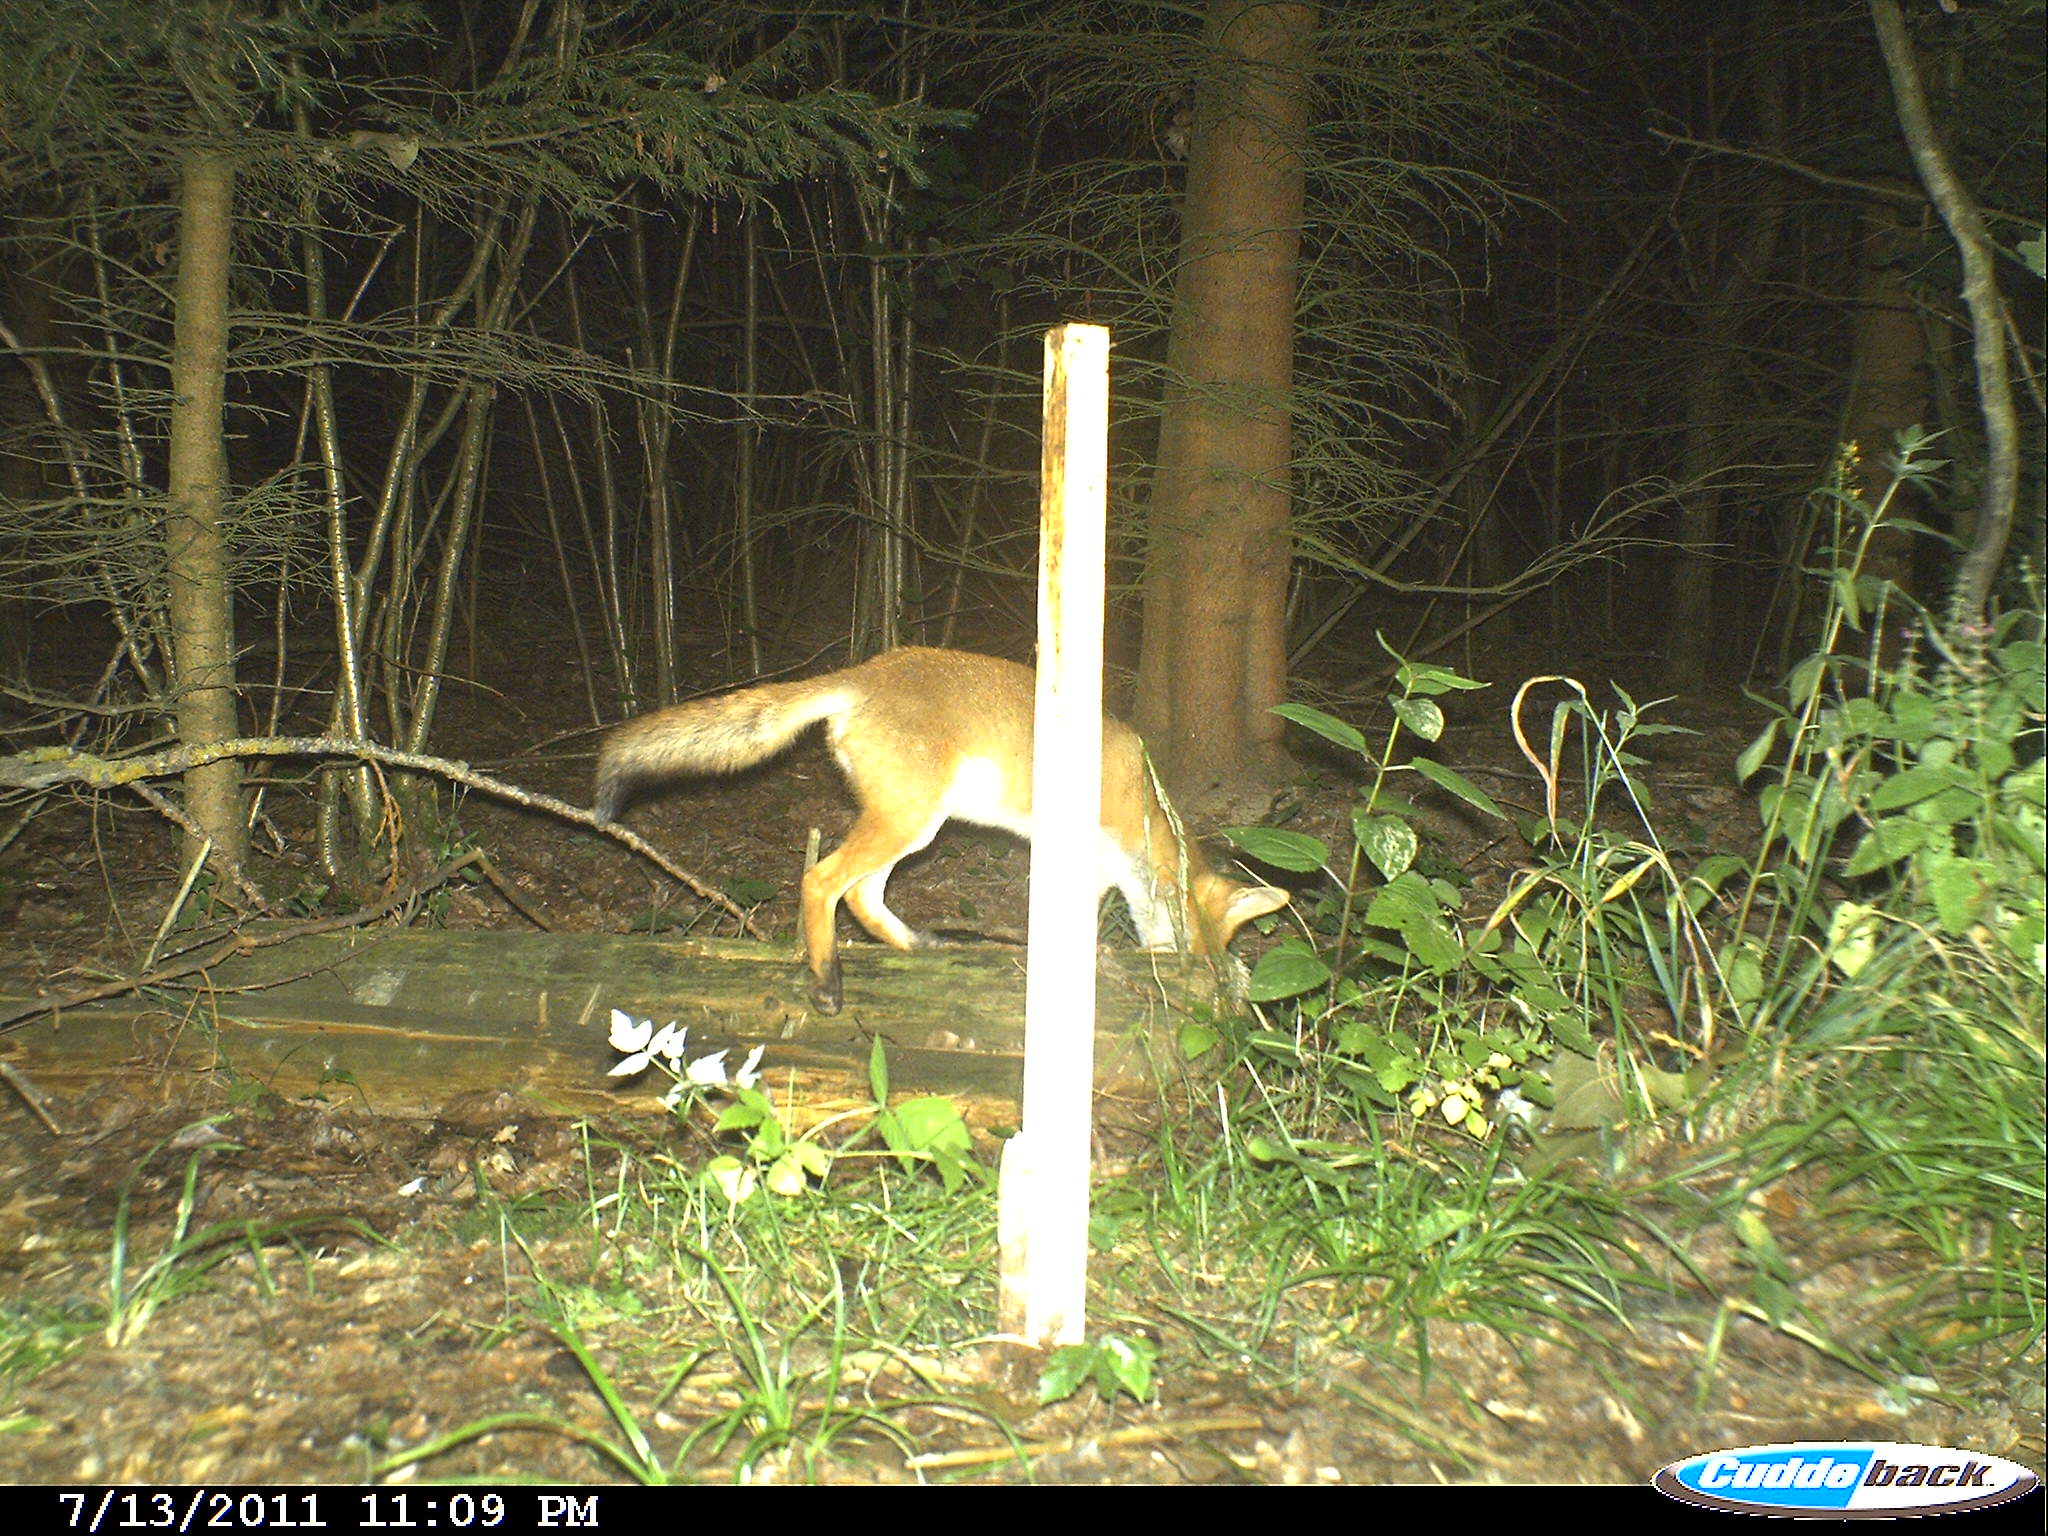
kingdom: Animalia
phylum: Chordata
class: Mammalia
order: Carnivora
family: Canidae
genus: Vulpes
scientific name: Vulpes vulpes
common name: Red fox
